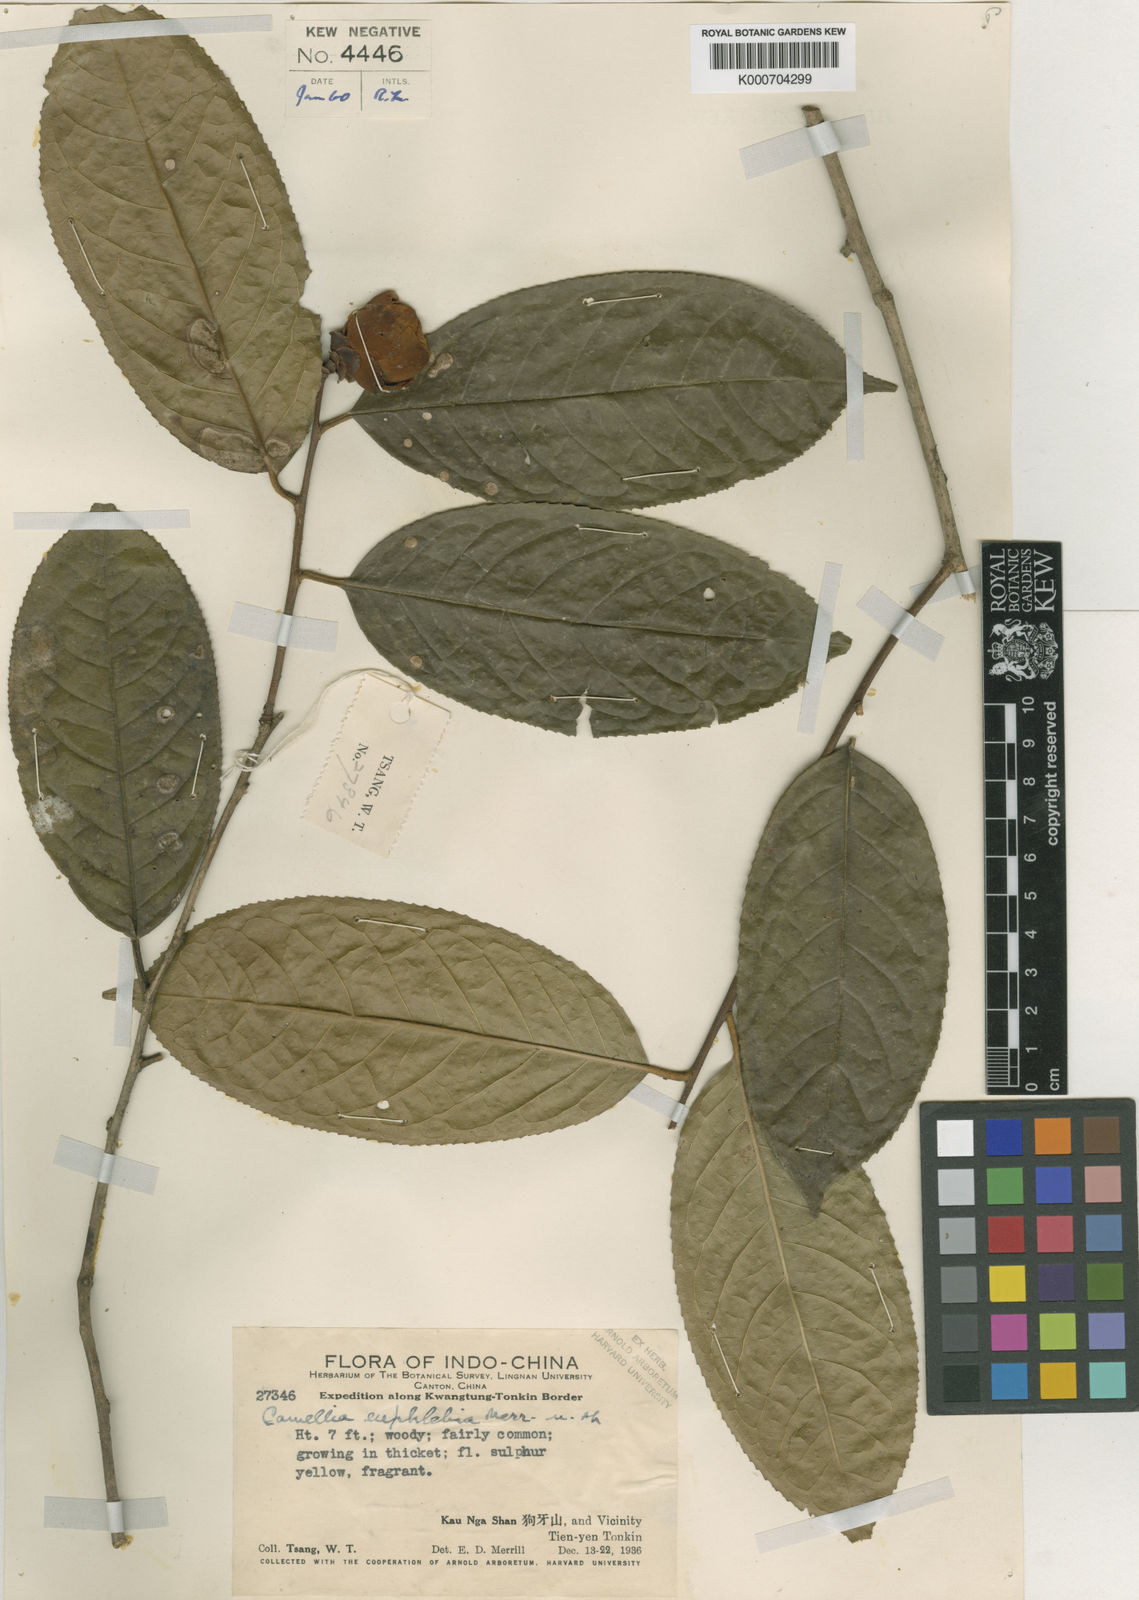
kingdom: Plantae
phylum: Tracheophyta
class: Magnoliopsida
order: Ericales
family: Theaceae
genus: Camellia
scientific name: Camellia euphlebia
